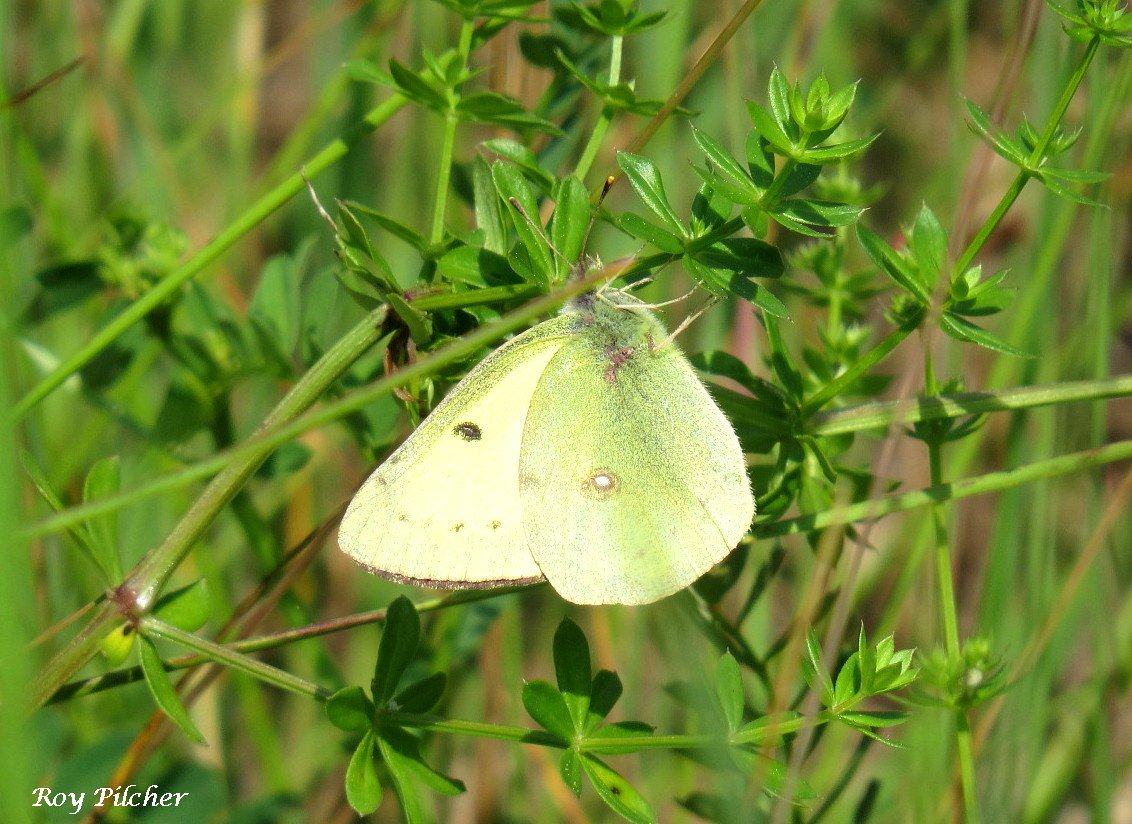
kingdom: Animalia
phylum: Arthropoda
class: Insecta
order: Lepidoptera
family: Pieridae
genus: Colias
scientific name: Colias philodice
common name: Clouded Sulphur
